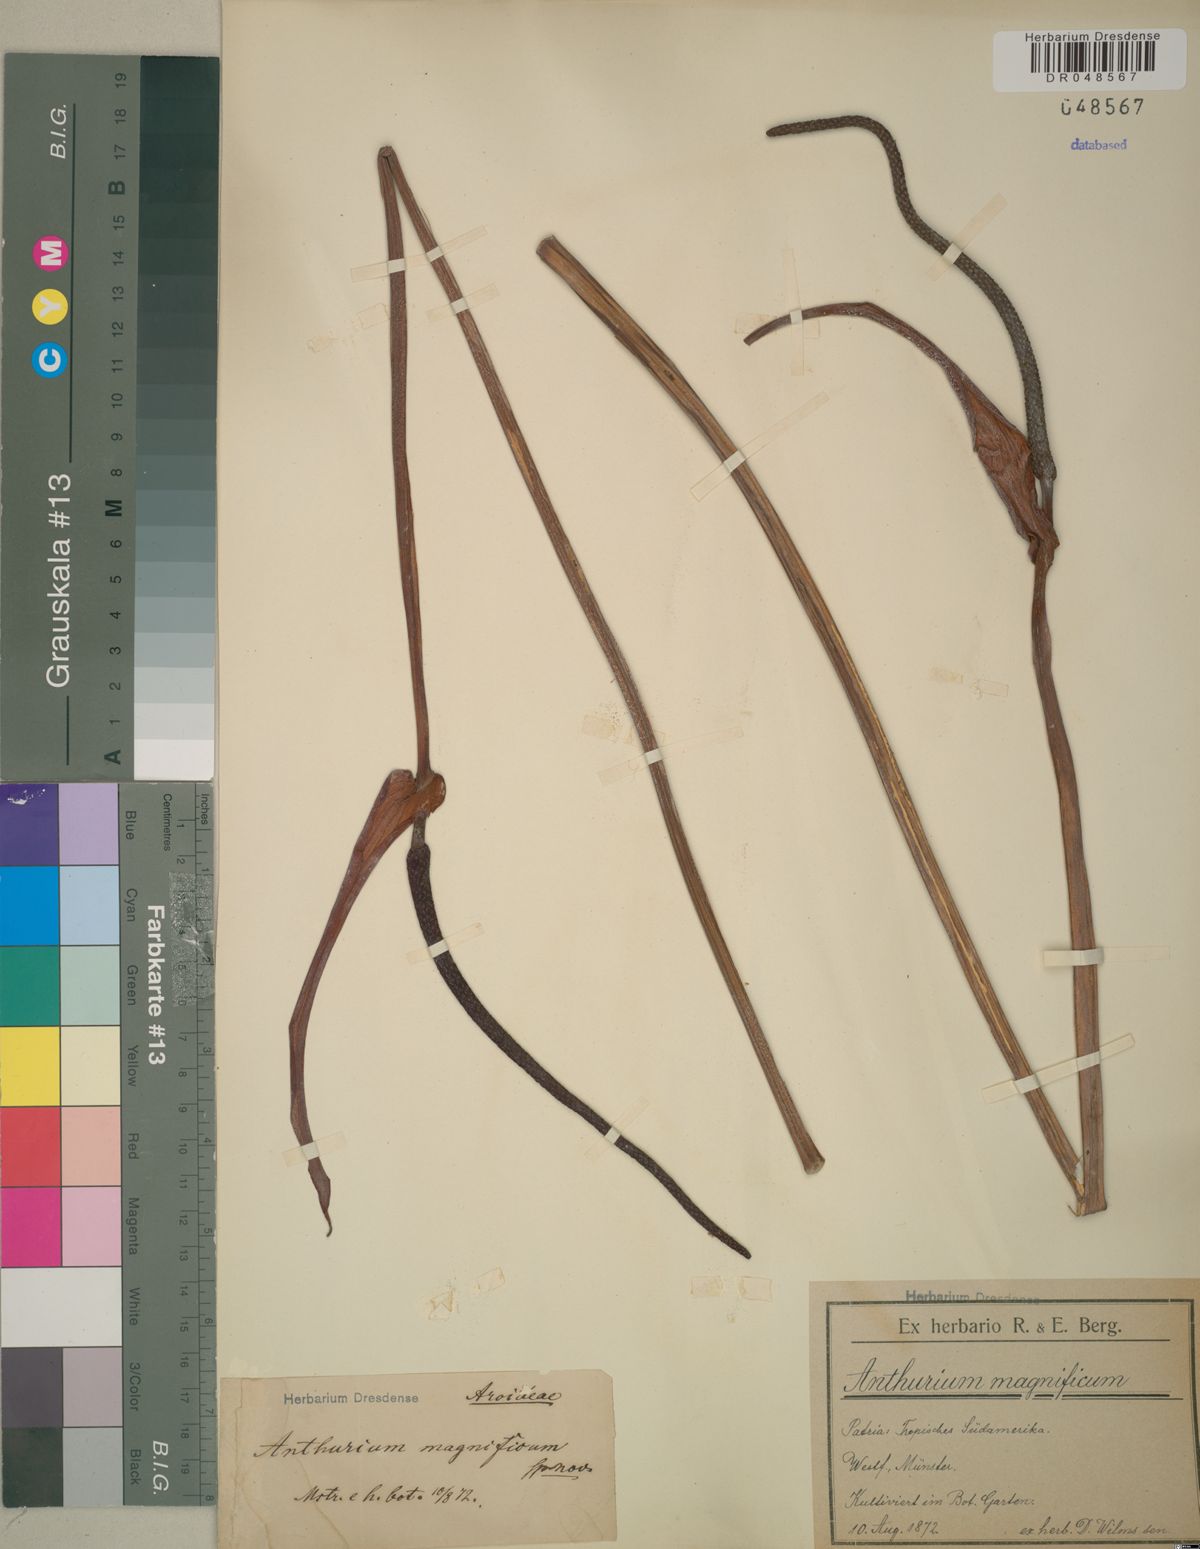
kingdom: Plantae
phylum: Tracheophyta
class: Liliopsida
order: Alismatales
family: Araceae
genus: Anthurium
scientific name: Anthurium magnificum
